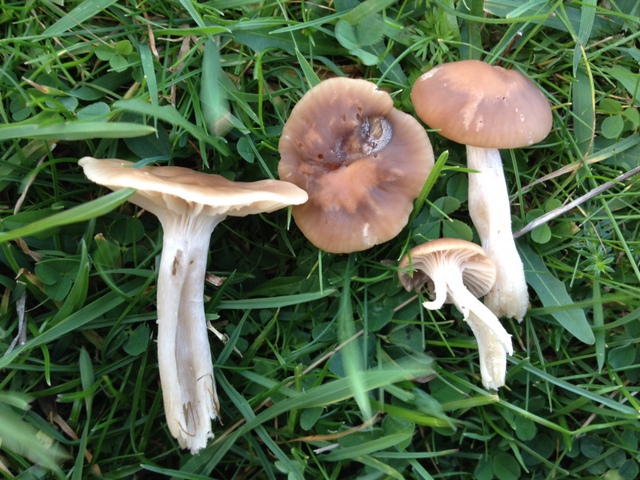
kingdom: Fungi
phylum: Basidiomycota
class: Agaricomycetes
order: Agaricales
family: Hygrophoraceae
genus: Cuphophyllus
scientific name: Cuphophyllus colemannianus
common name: rødbrun vokshat
